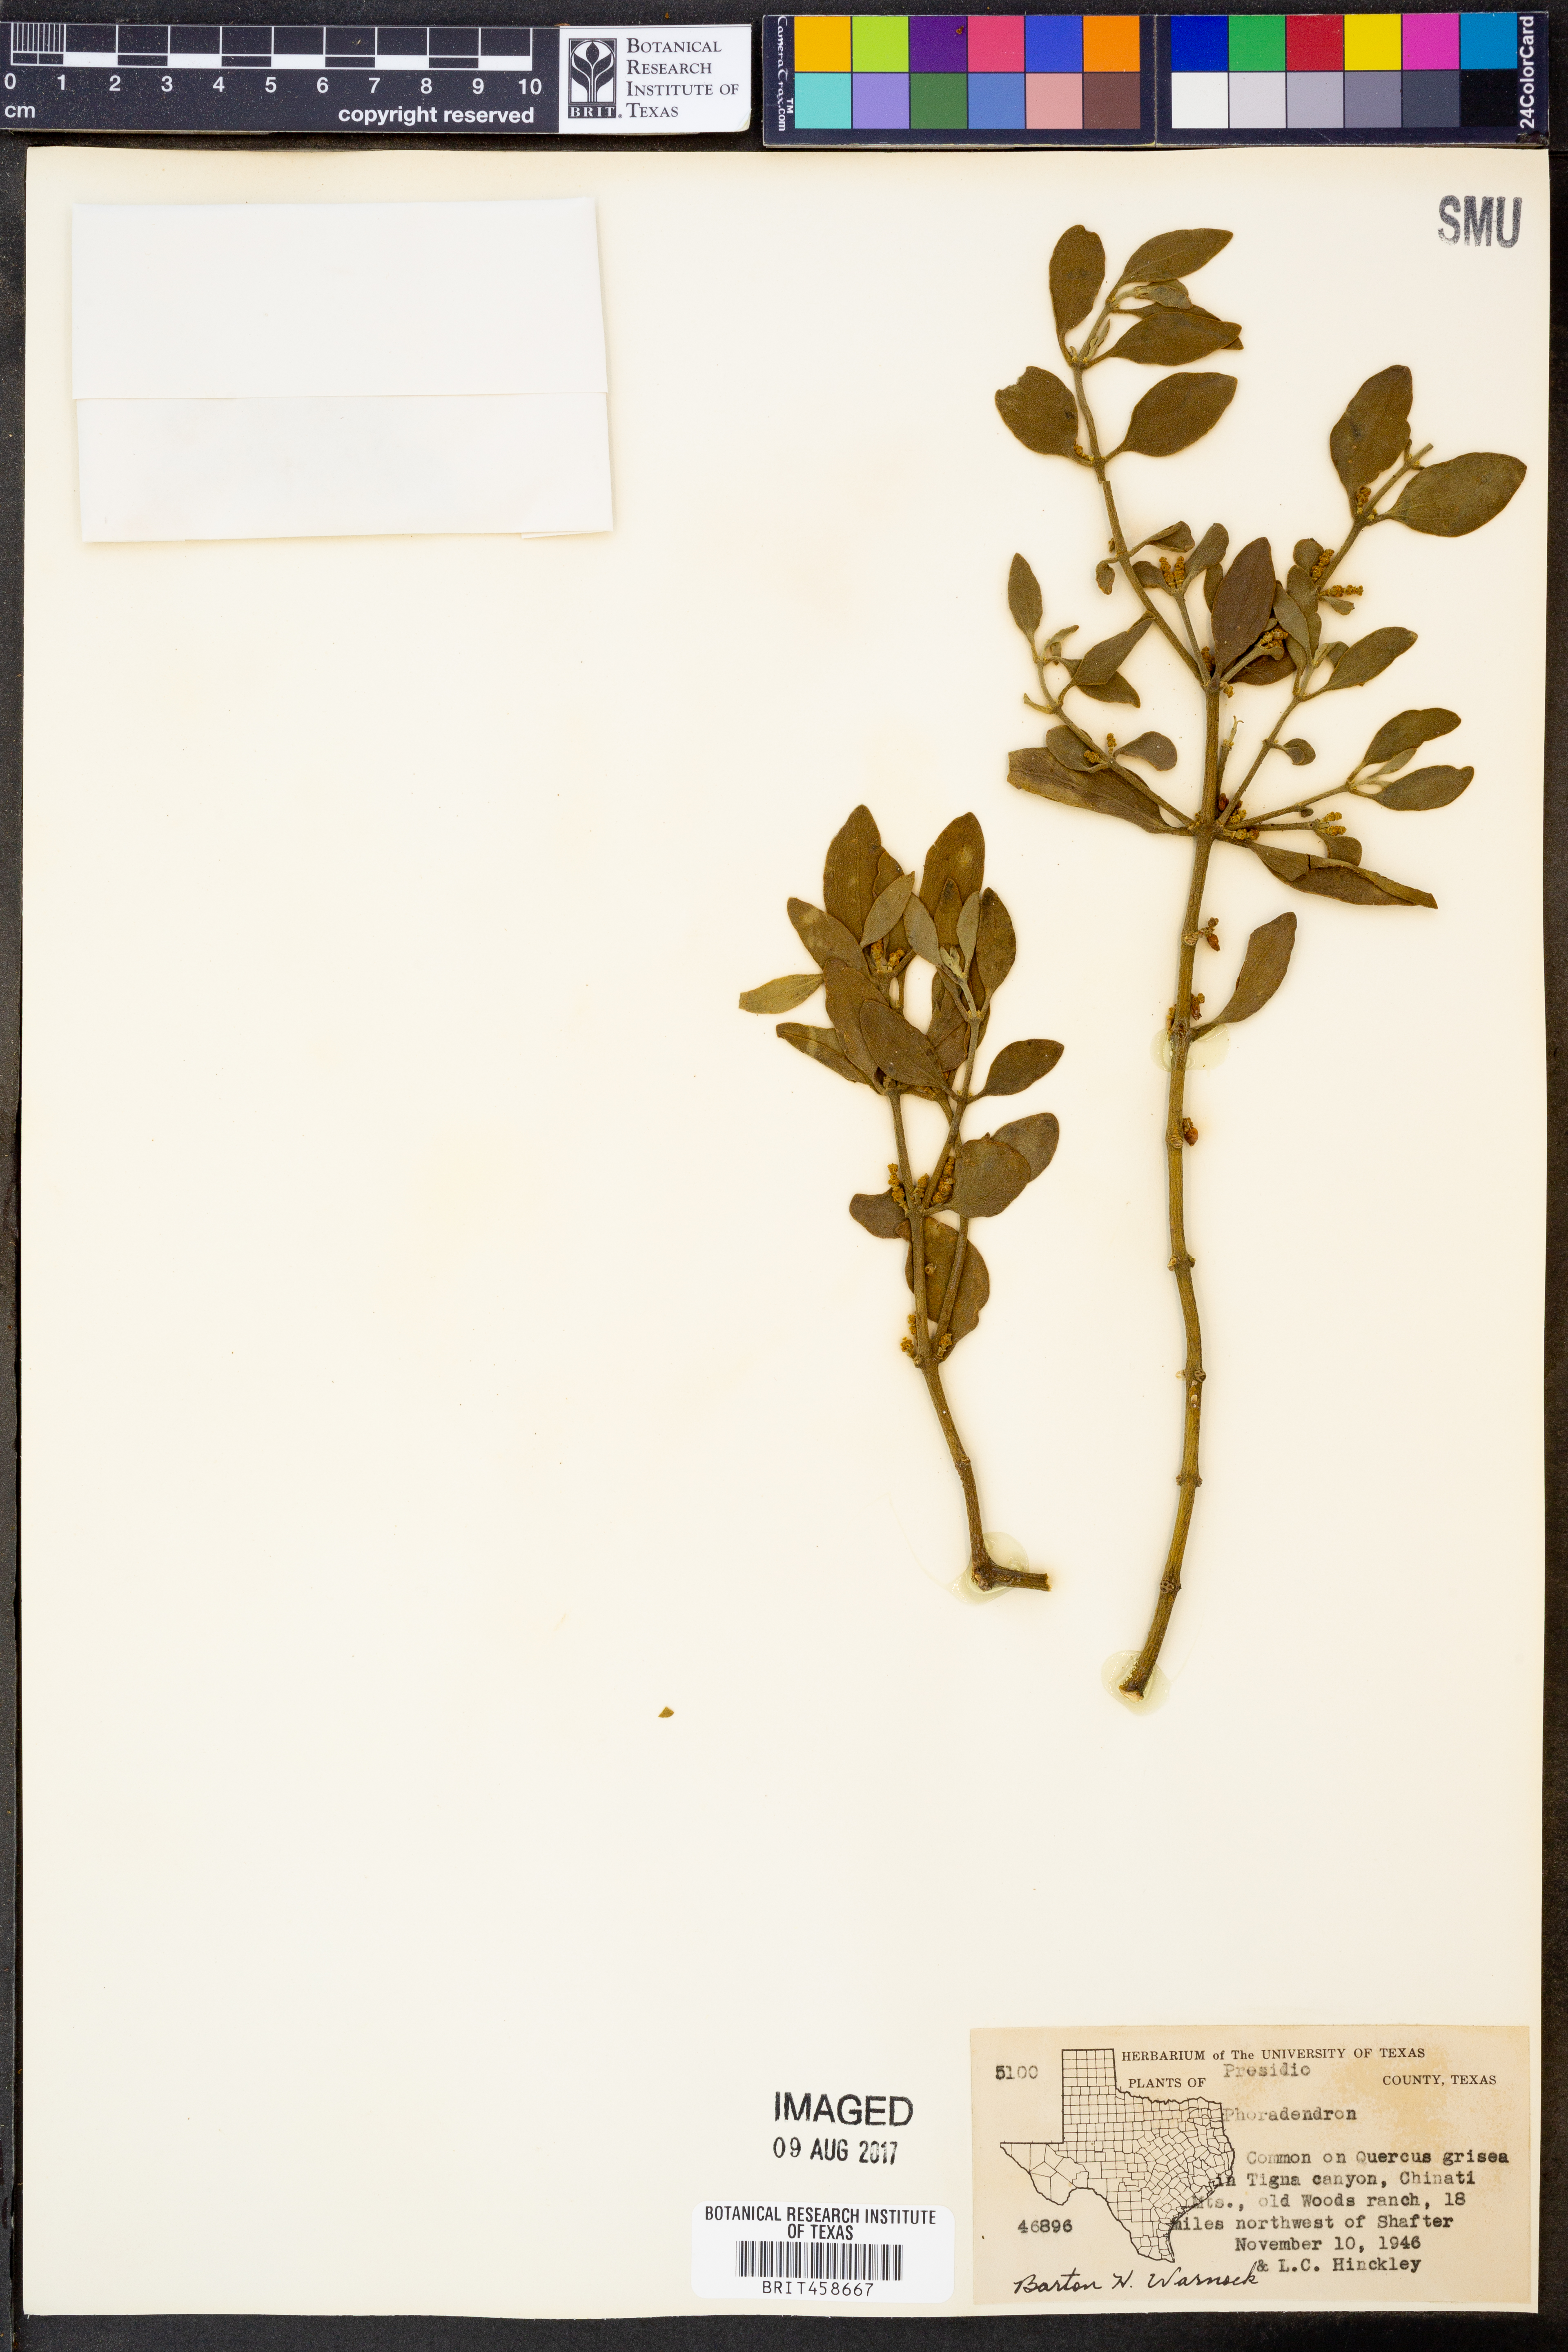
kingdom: Plantae
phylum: Tracheophyta
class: Magnoliopsida
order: Santalales
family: Viscaceae
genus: Phoradendron
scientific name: Phoradendron
